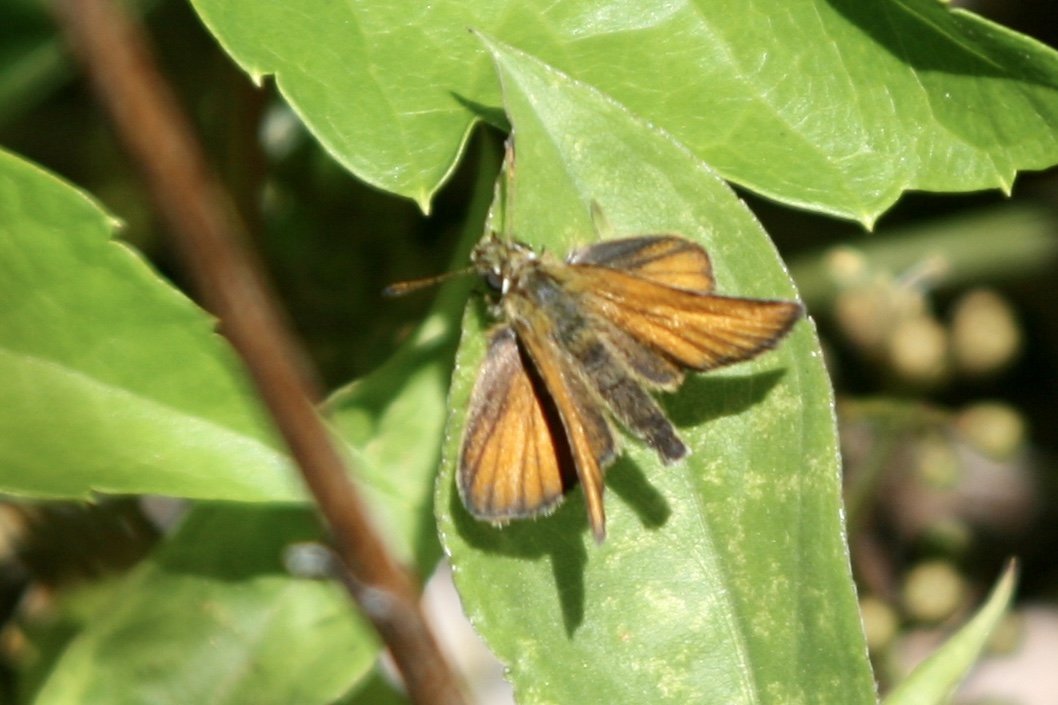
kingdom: Animalia
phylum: Arthropoda
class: Insecta
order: Lepidoptera
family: Hesperiidae
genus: Ancyloxypha
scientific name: Ancyloxypha numitor
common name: Least Skipper
